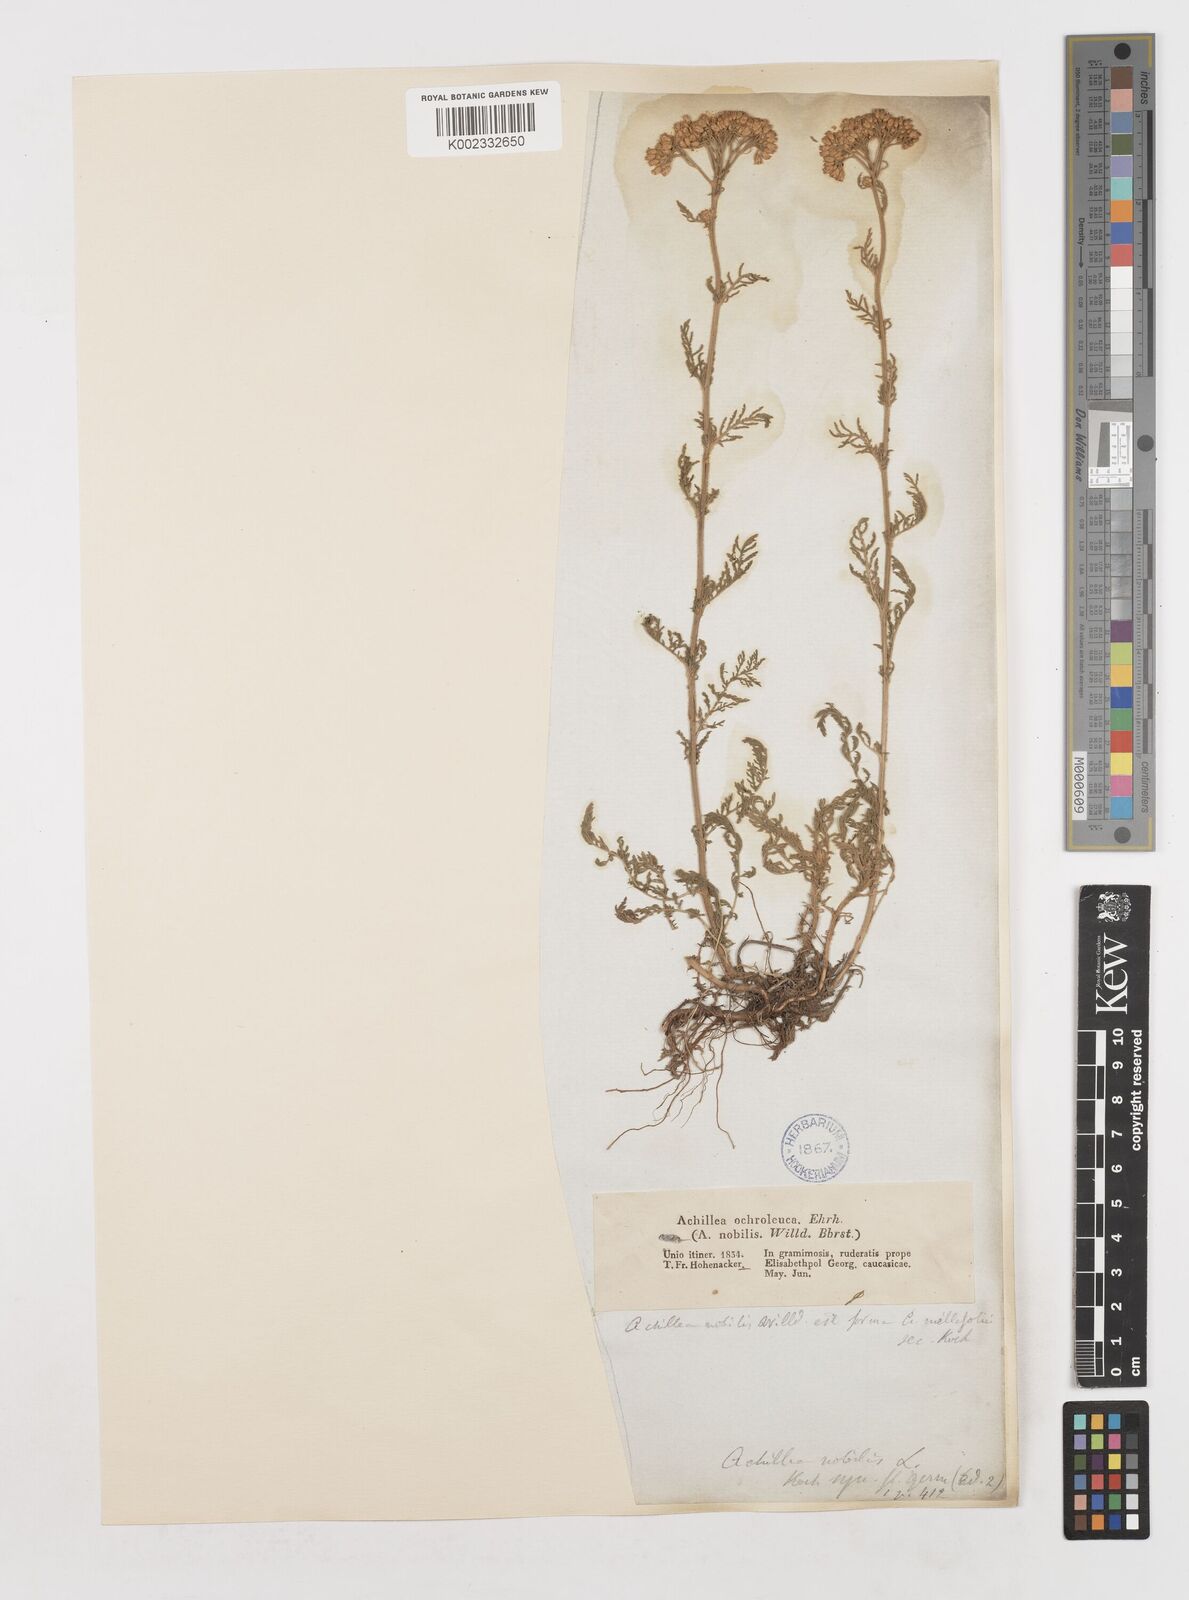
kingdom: Plantae
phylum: Tracheophyta
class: Magnoliopsida
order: Asterales
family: Asteraceae
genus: Achillea
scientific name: Achillea nobilis
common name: Noble yarrow
